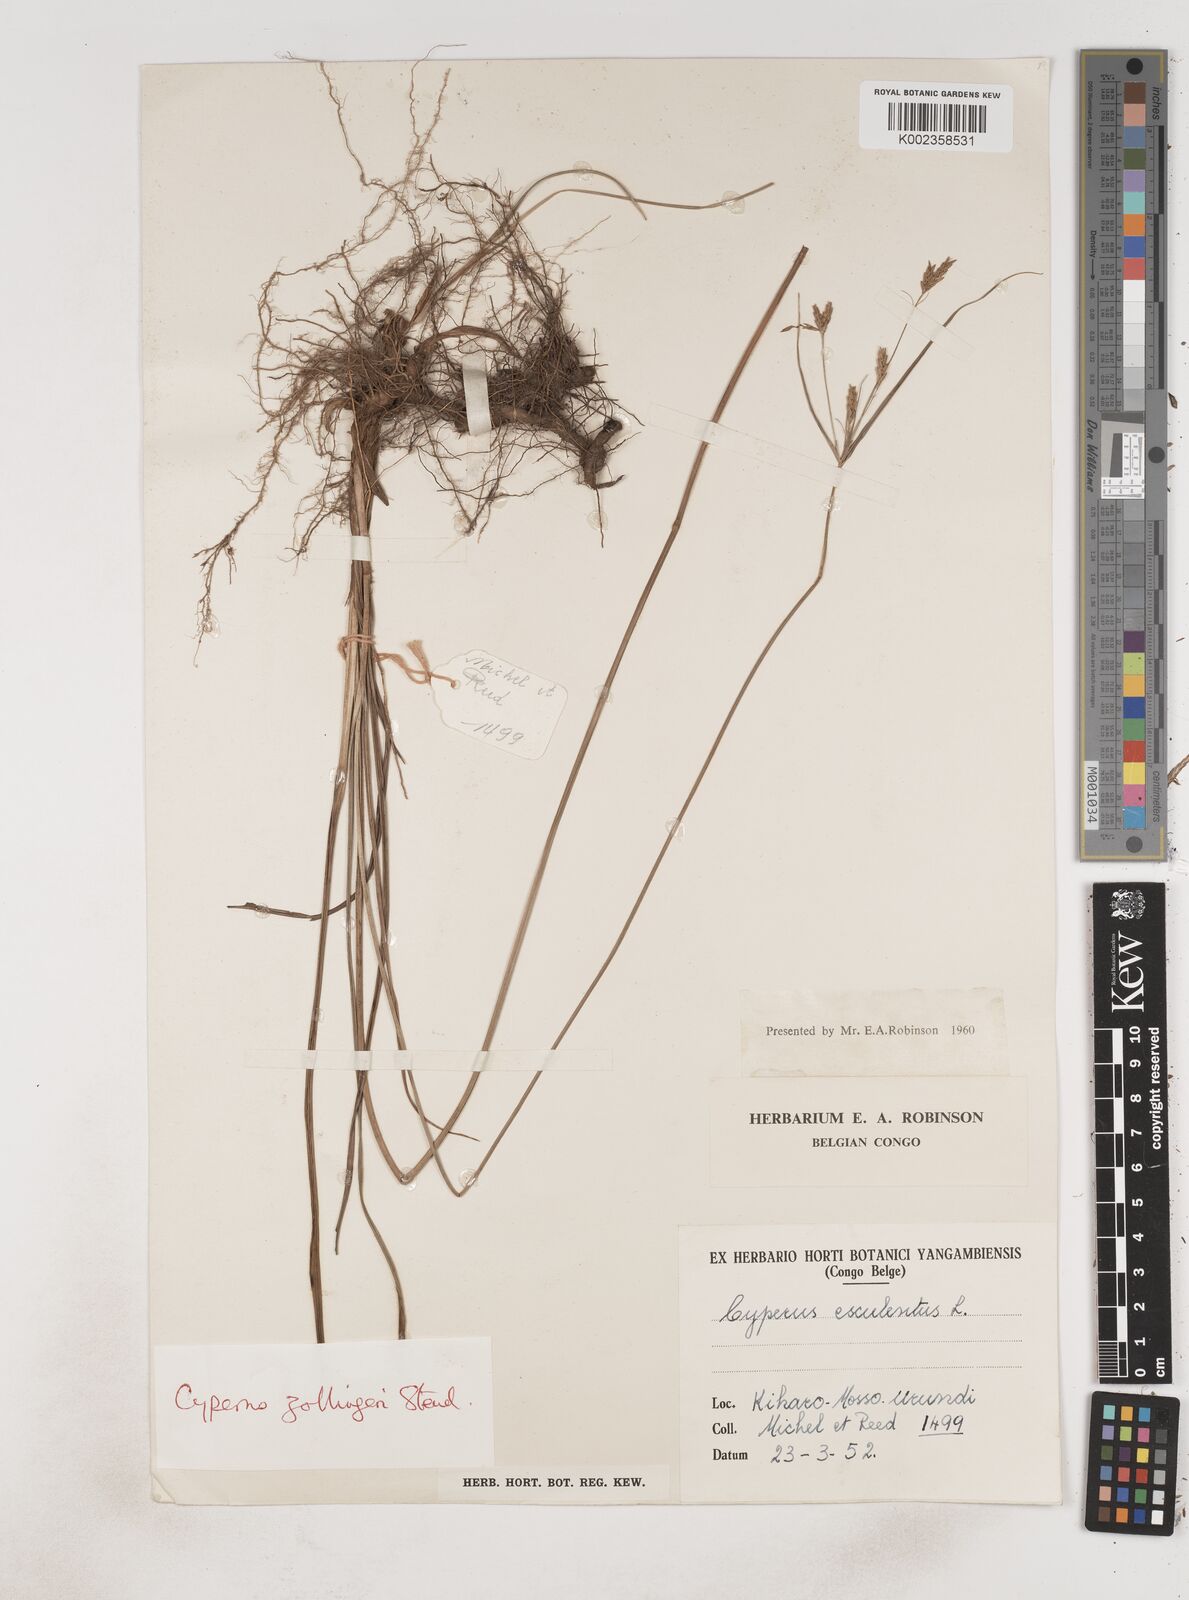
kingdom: Plantae
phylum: Tracheophyta
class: Liliopsida
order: Poales
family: Cyperaceae
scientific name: Cyperaceae
